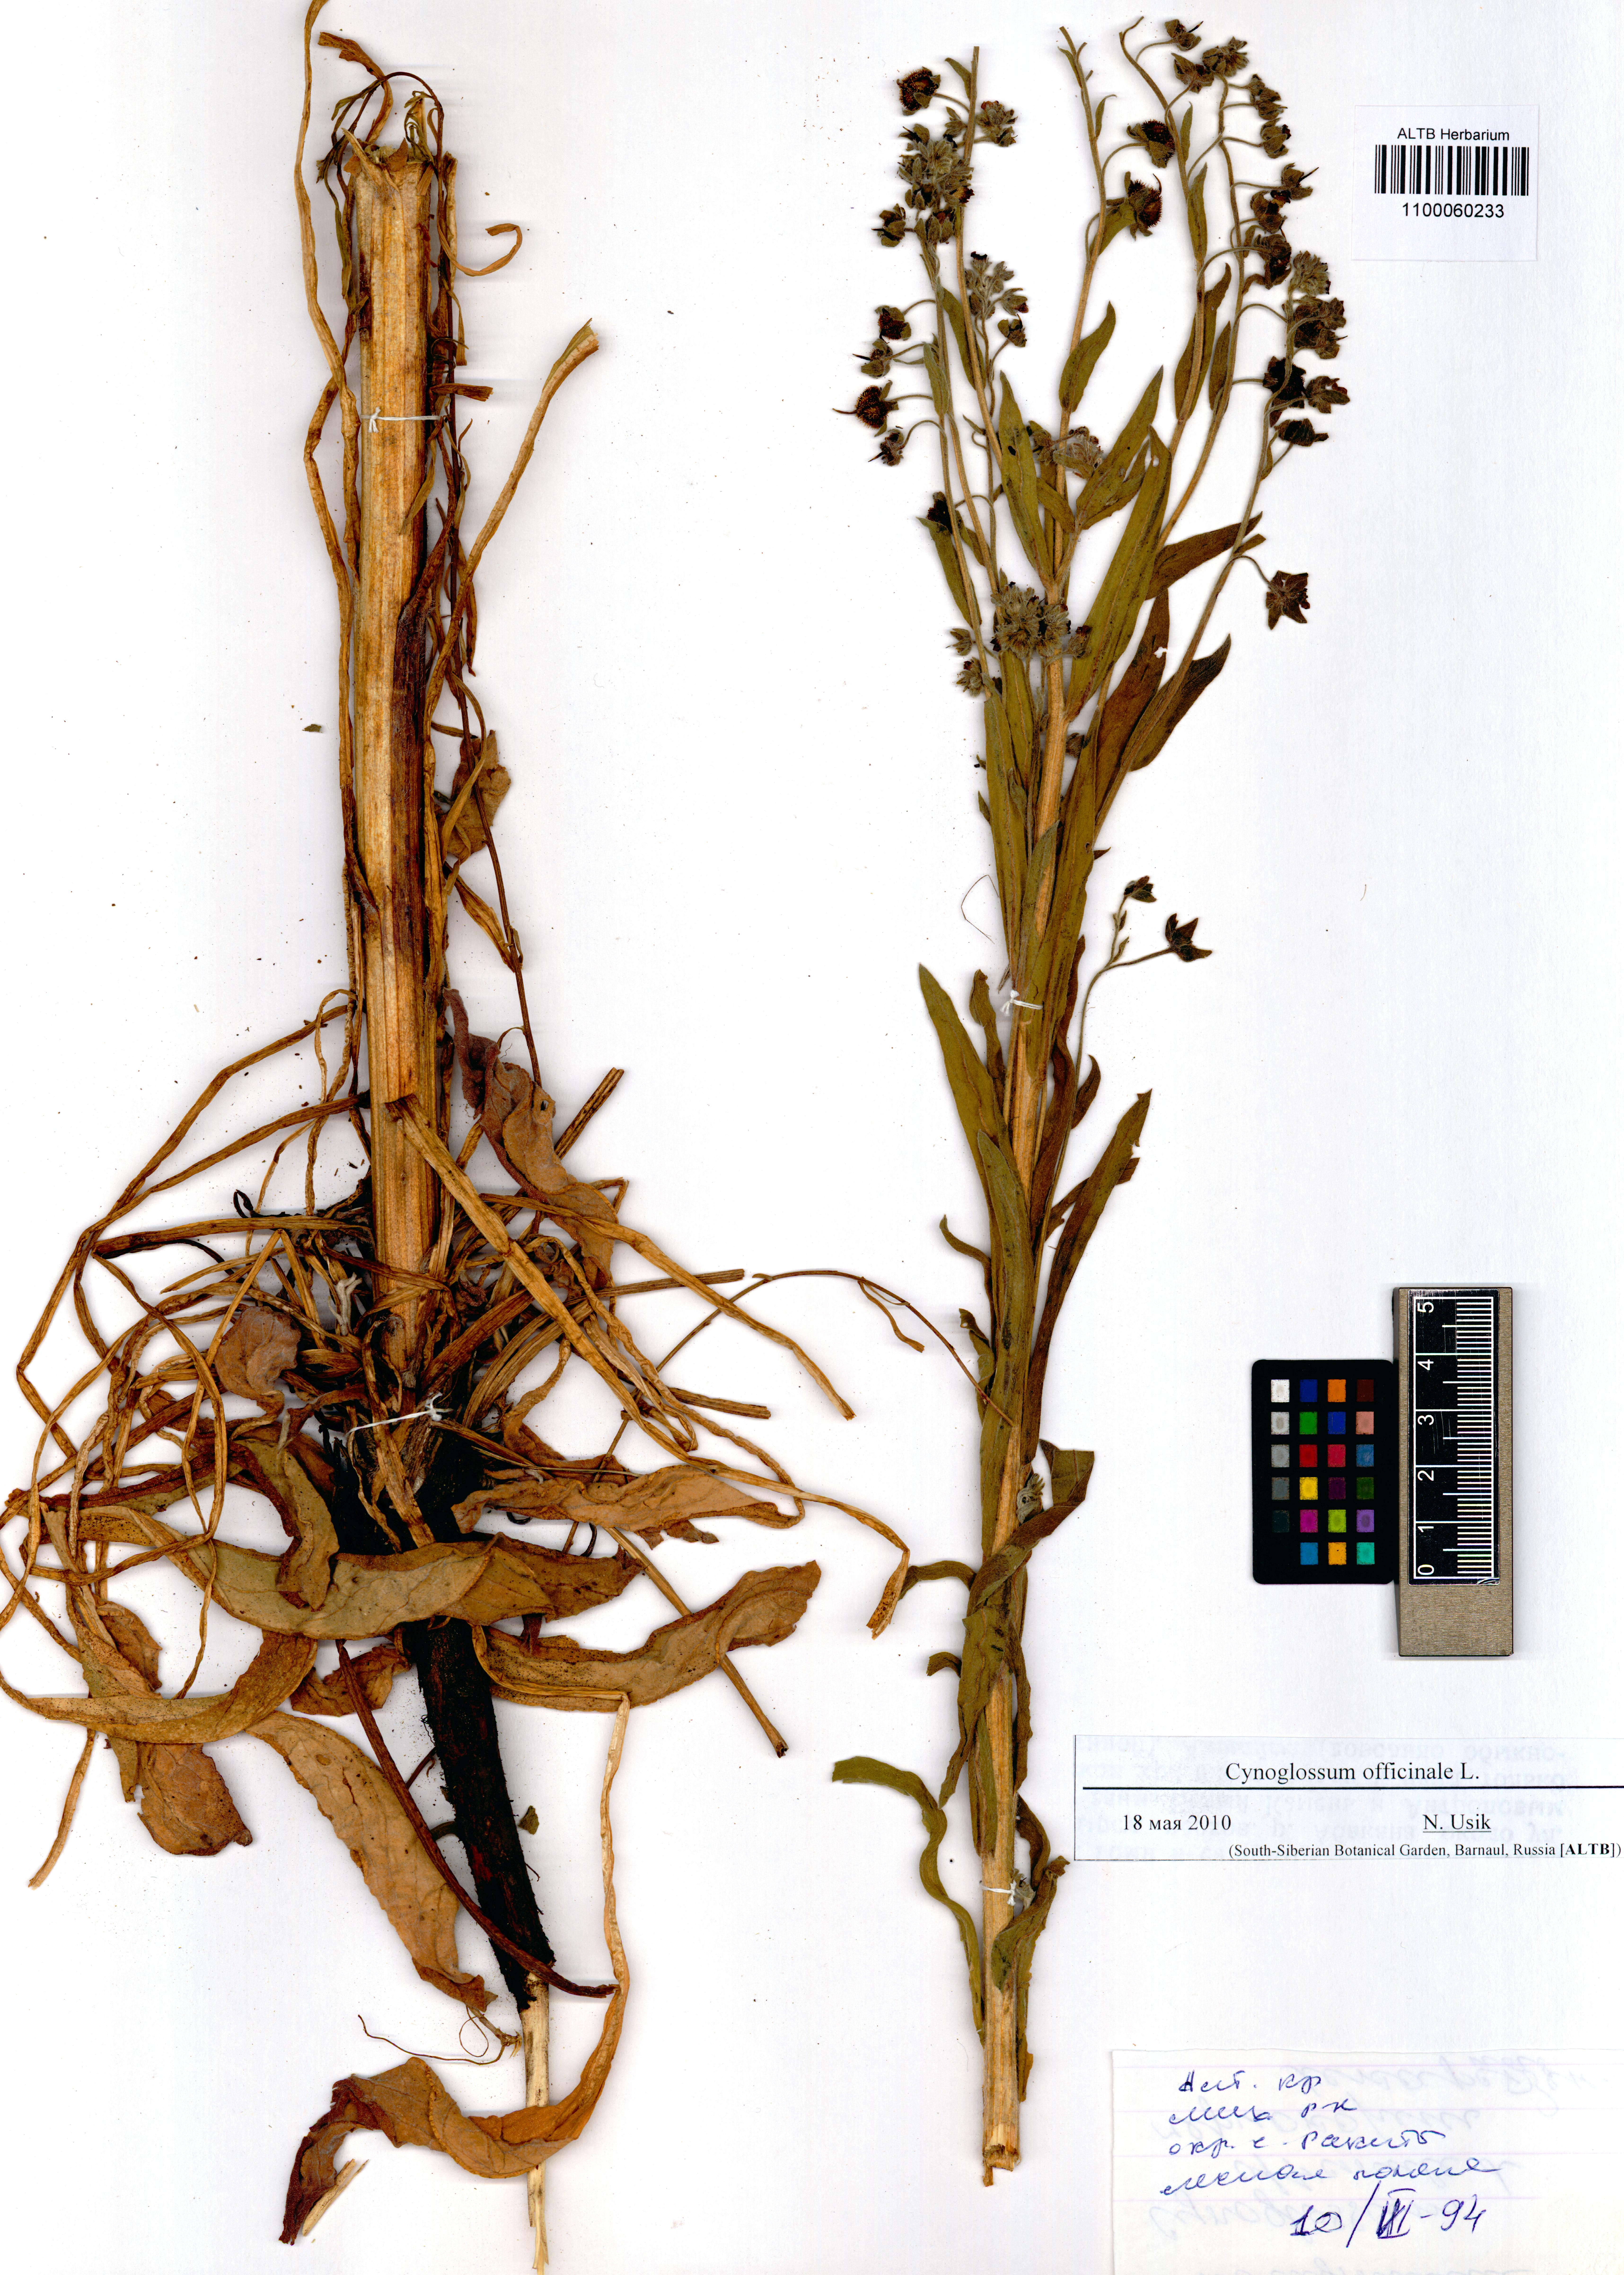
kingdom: Plantae
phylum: Tracheophyta
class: Magnoliopsida
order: Boraginales
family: Boraginaceae
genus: Cynoglossum
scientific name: Cynoglossum officinale
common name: Hound's-tongue
